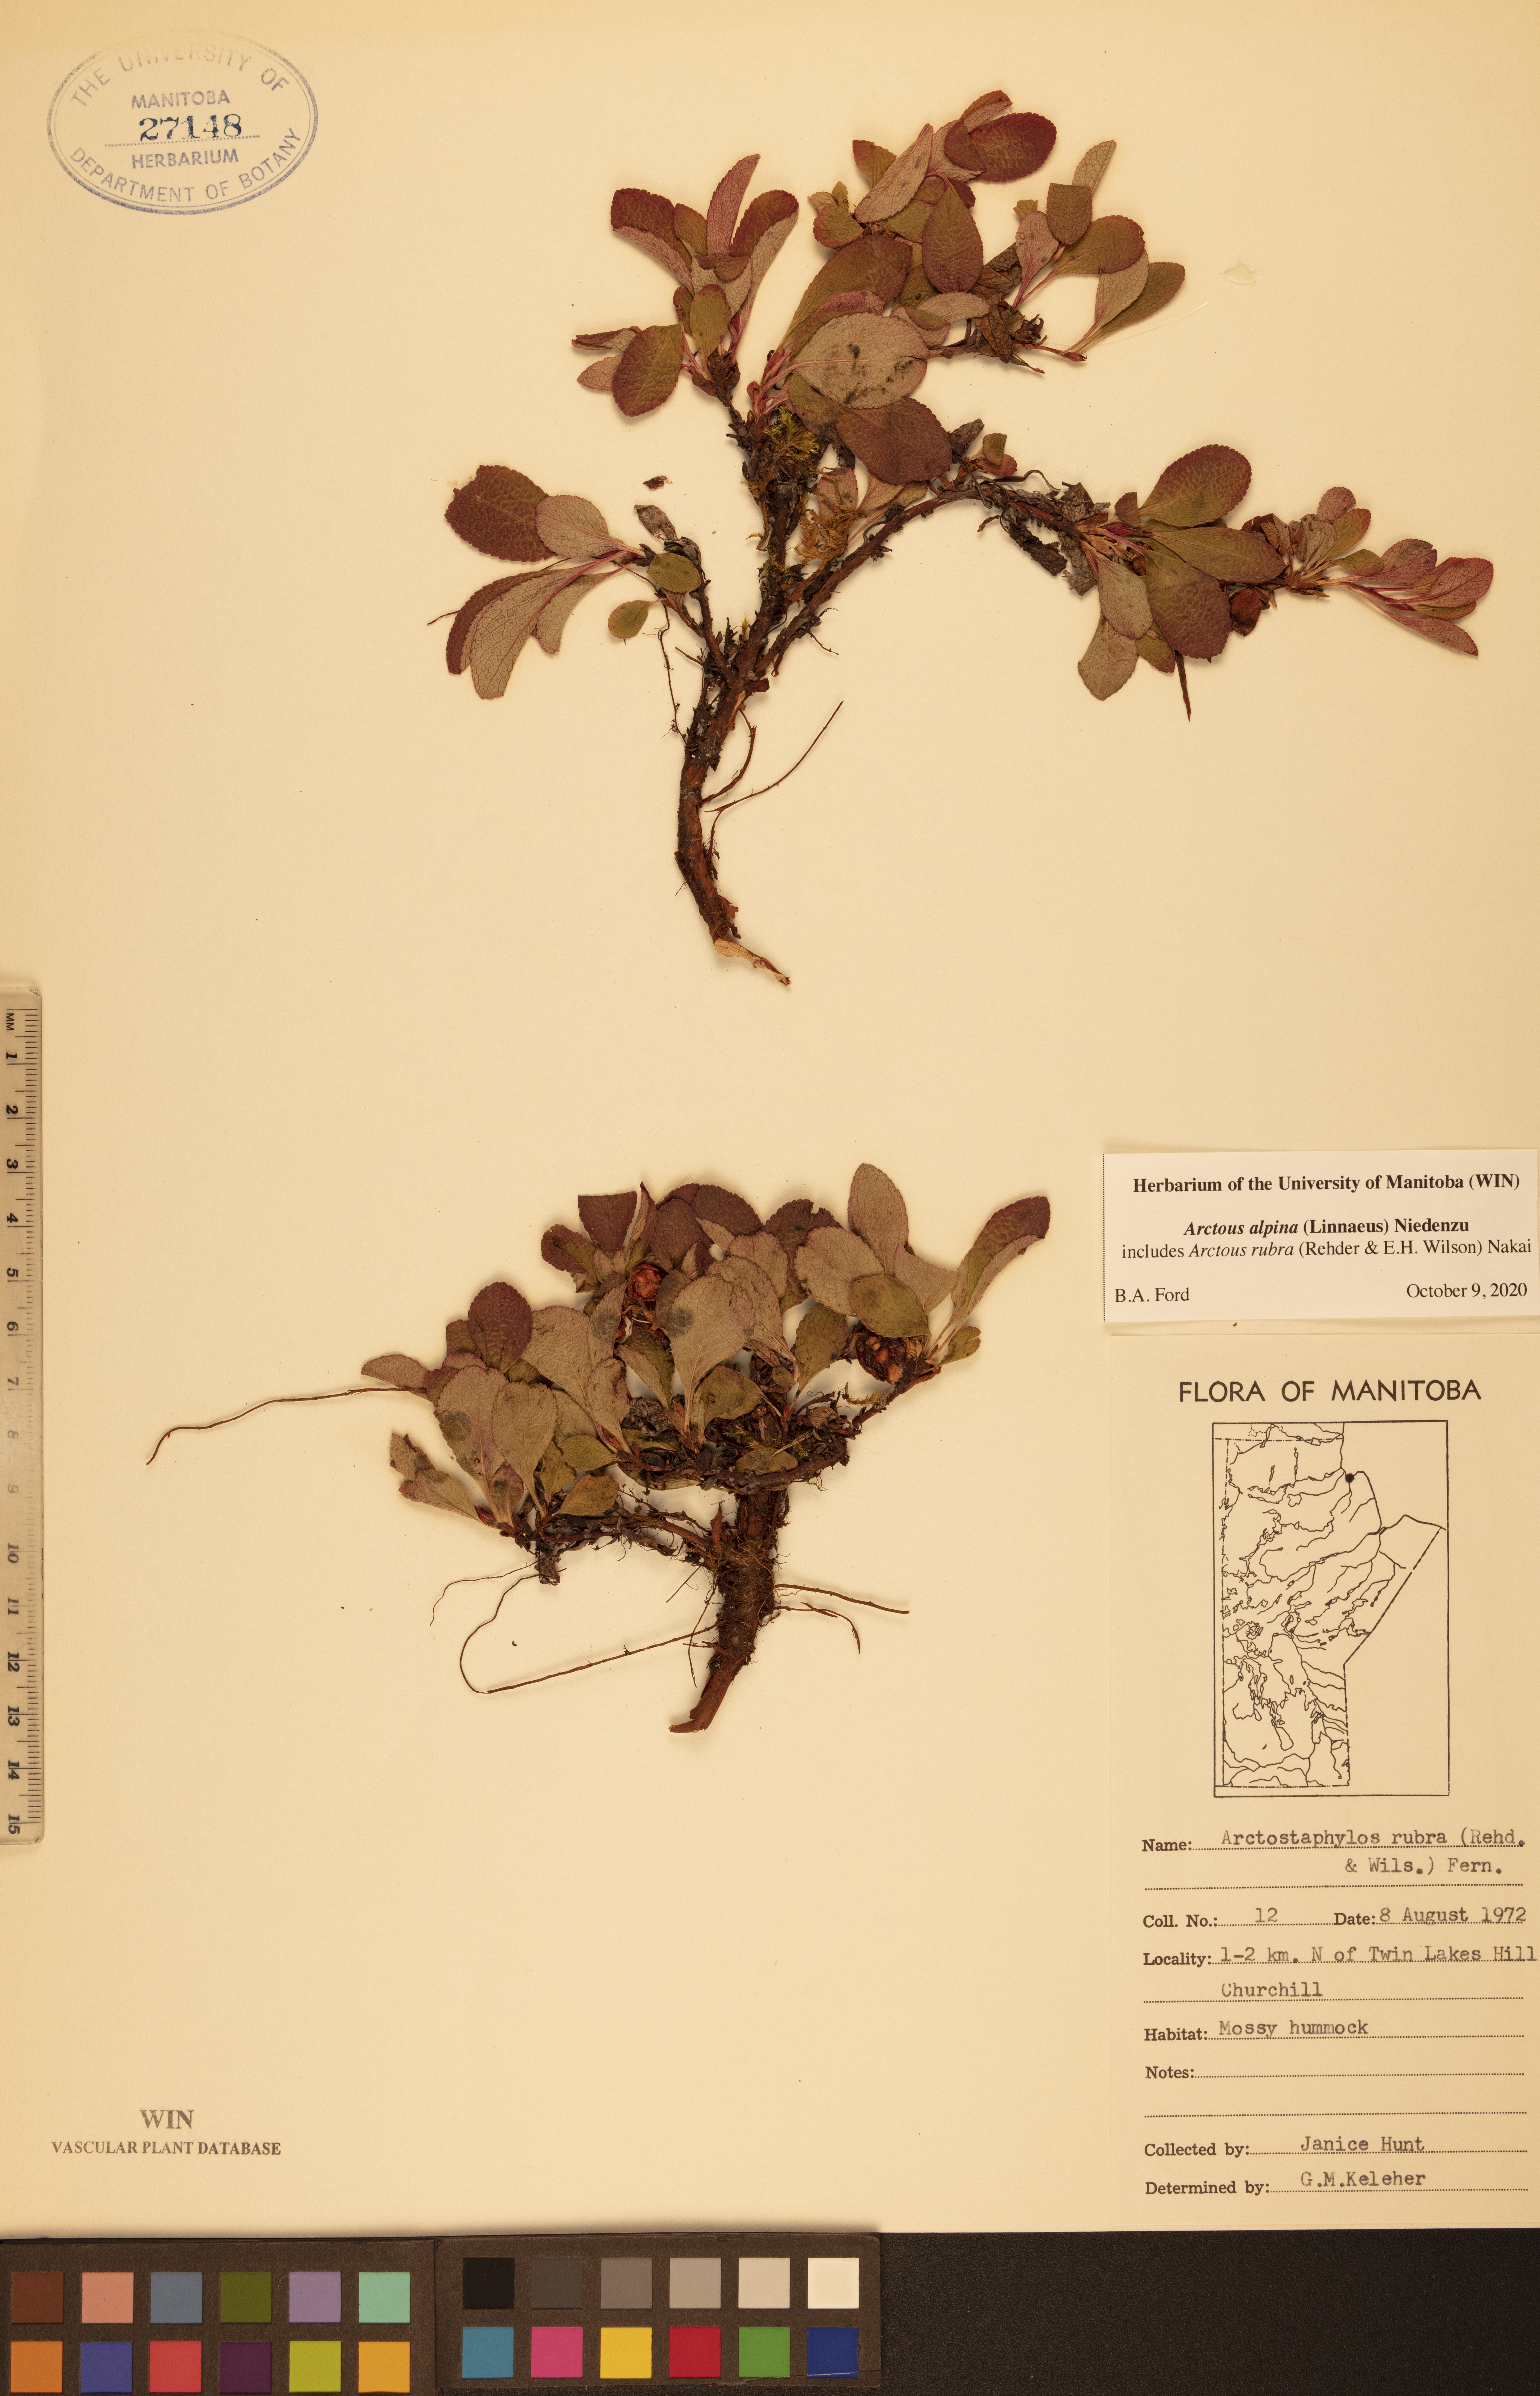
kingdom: Plantae
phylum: Tracheophyta
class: Magnoliopsida
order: Ericales
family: Ericaceae
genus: Arctostaphylos
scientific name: Arctostaphylos alpinus
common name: Alpine bearberry
